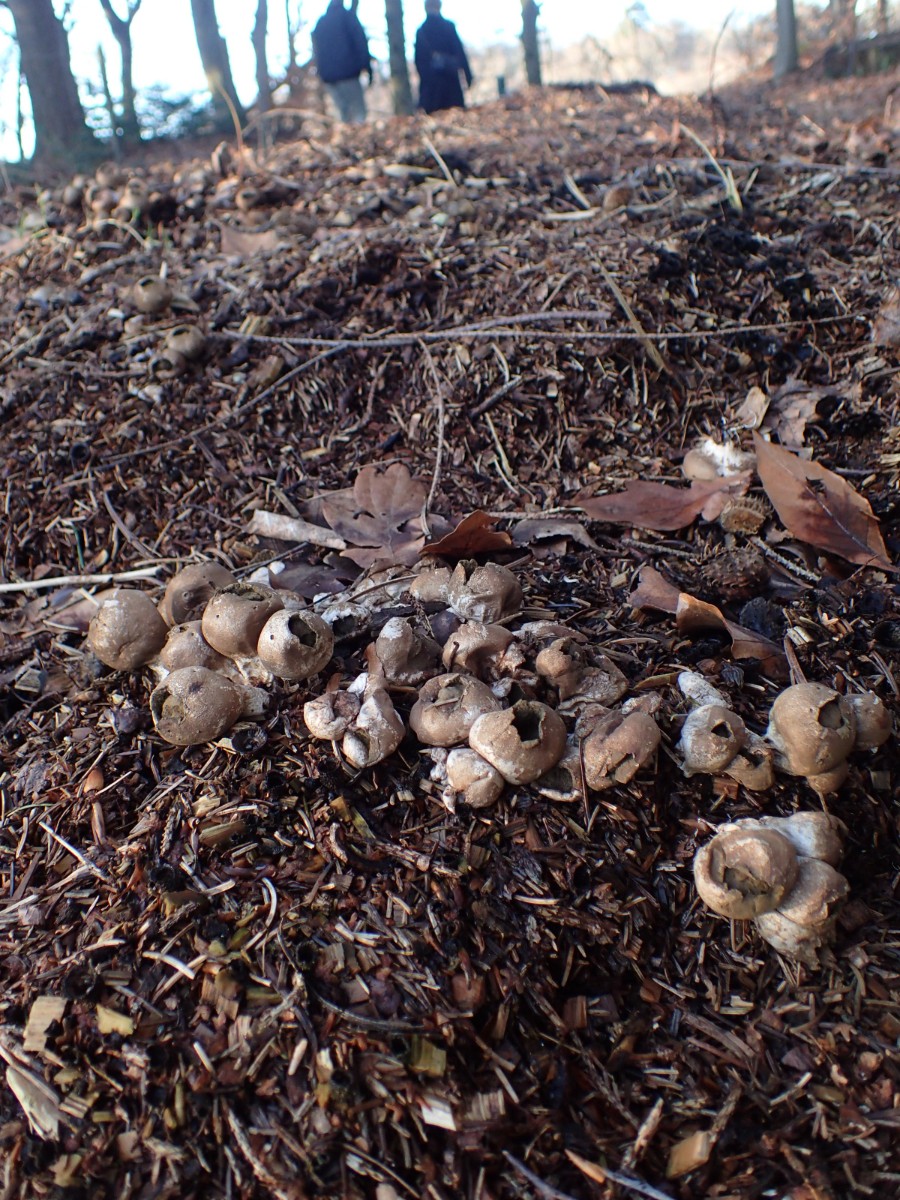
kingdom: Fungi
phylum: Basidiomycota
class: Agaricomycetes
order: Agaricales
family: Lycoperdaceae
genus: Apioperdon
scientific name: Apioperdon pyriforme
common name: pære-støvbold
